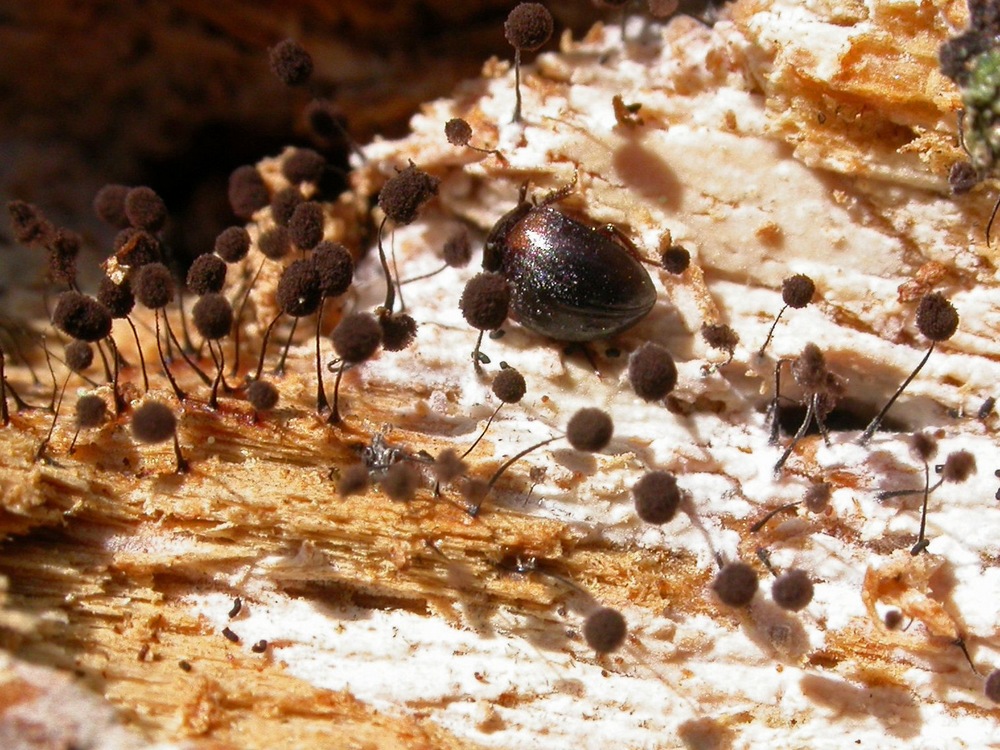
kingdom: Protozoa
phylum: Mycetozoa
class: Myxomycetes
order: Stemonitidales
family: Stemonitidaceae
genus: Comatricha
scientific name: Comatricha nigra
